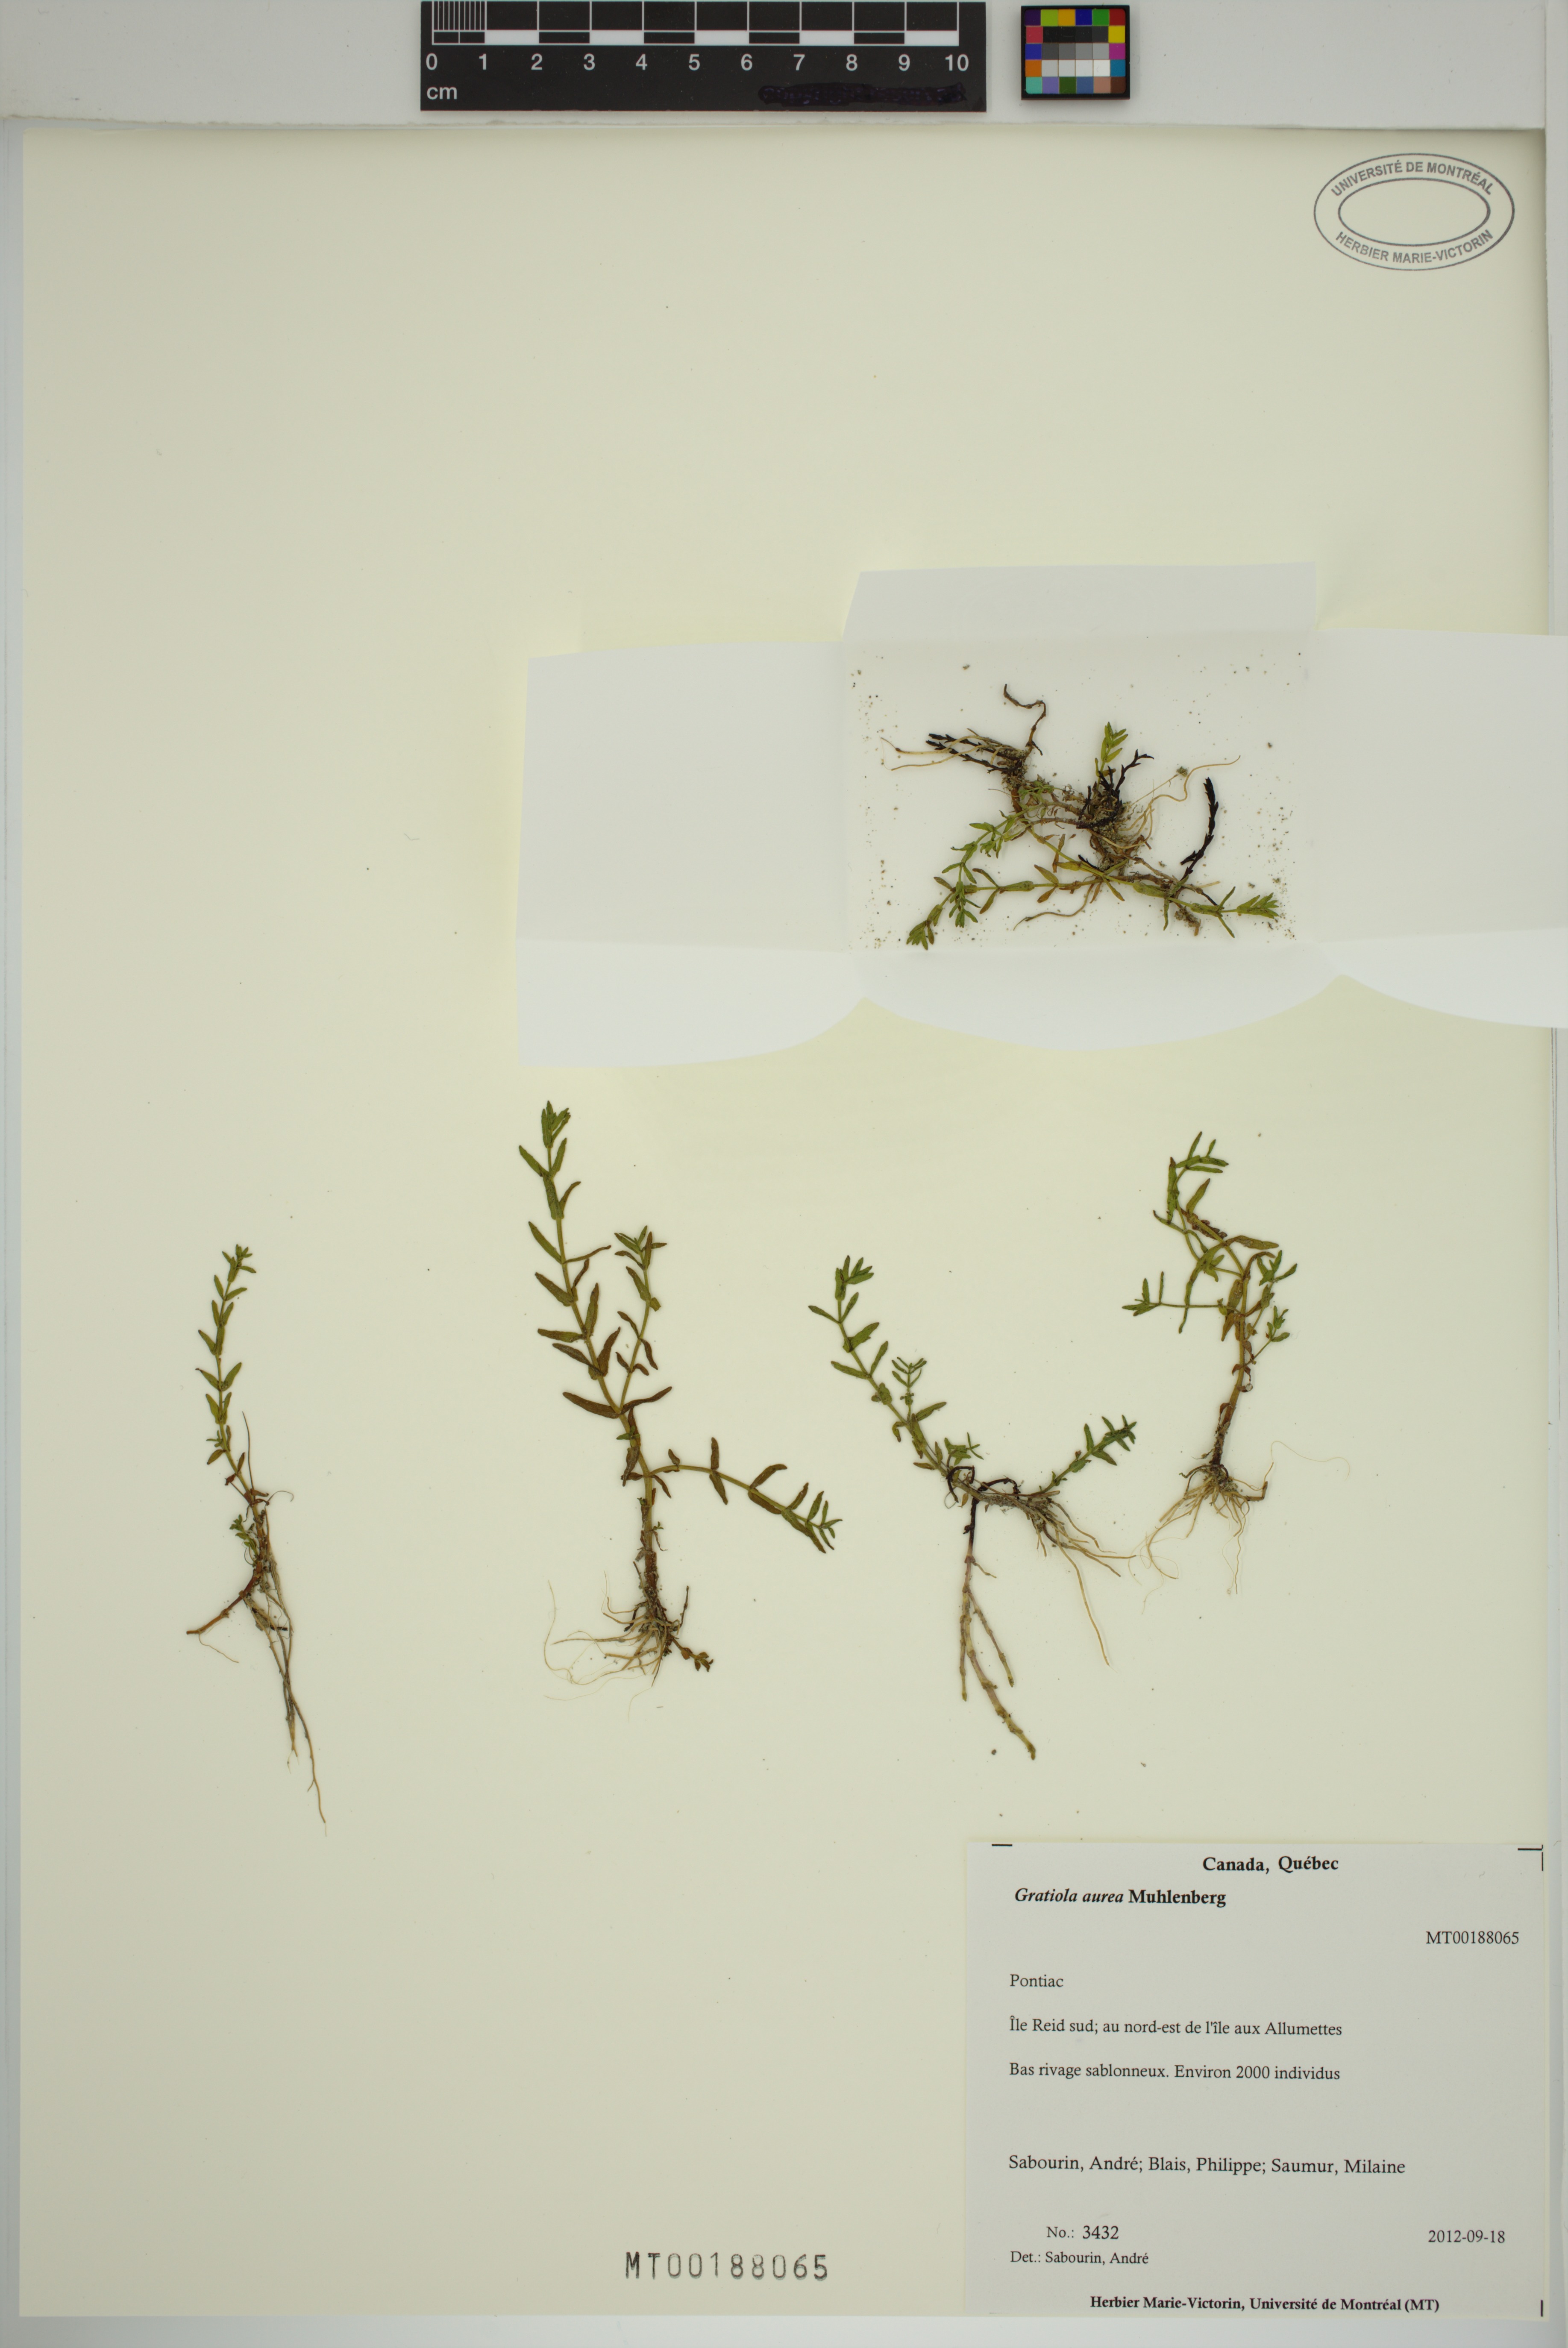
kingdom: Plantae
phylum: Tracheophyta
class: Magnoliopsida
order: Lamiales
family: Plantaginaceae
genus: Gratiola
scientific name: Gratiola lutea
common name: Golden hedge-hyssop
